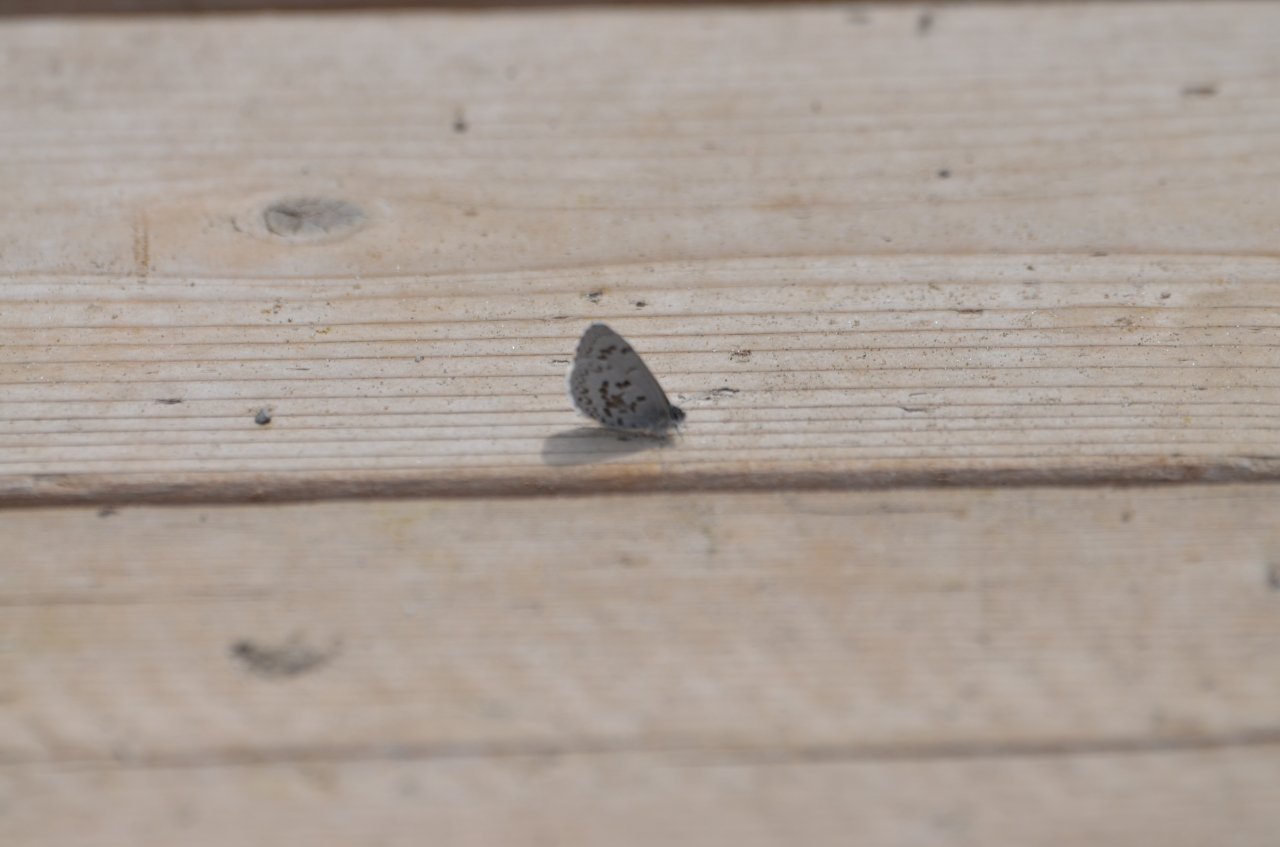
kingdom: Animalia
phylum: Arthropoda
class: Insecta
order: Lepidoptera
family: Lycaenidae
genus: Celastrina
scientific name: Celastrina lucia
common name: Northern Spring Azure
